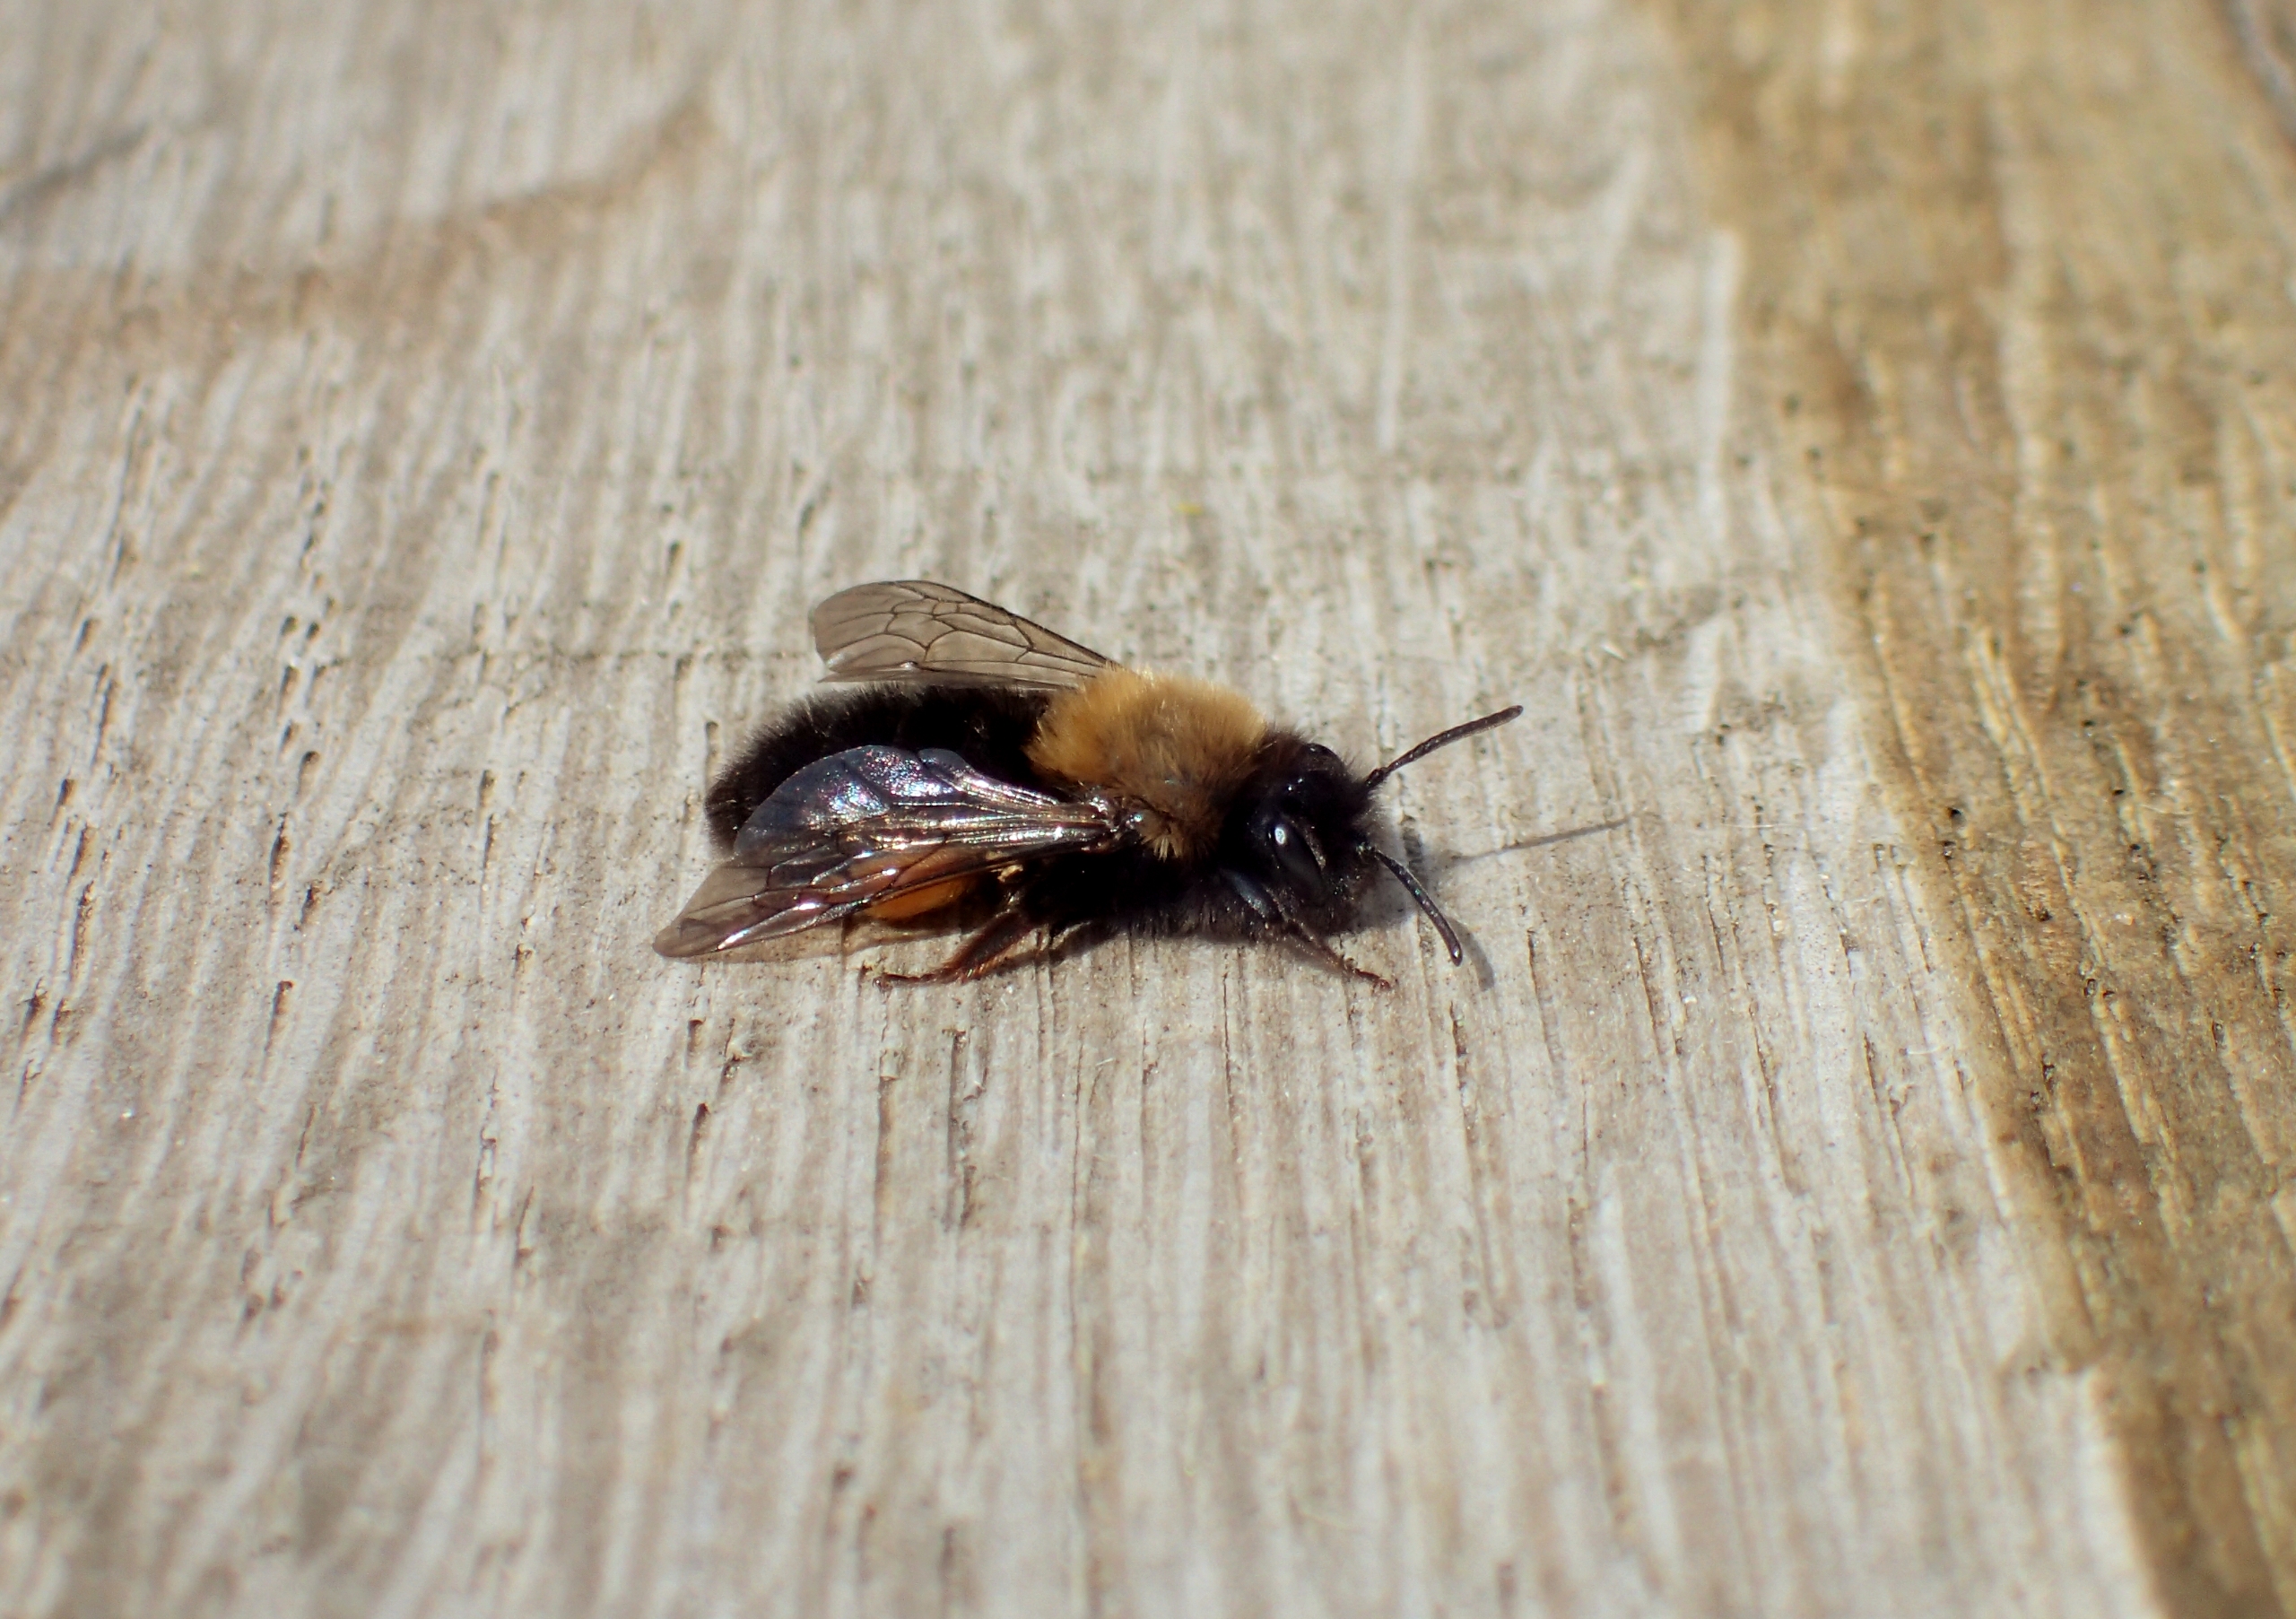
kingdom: Animalia
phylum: Arthropoda
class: Insecta
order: Hymenoptera
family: Andrenidae
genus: Andrena
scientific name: Andrena clarkella
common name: Rødbrystet jordbi
